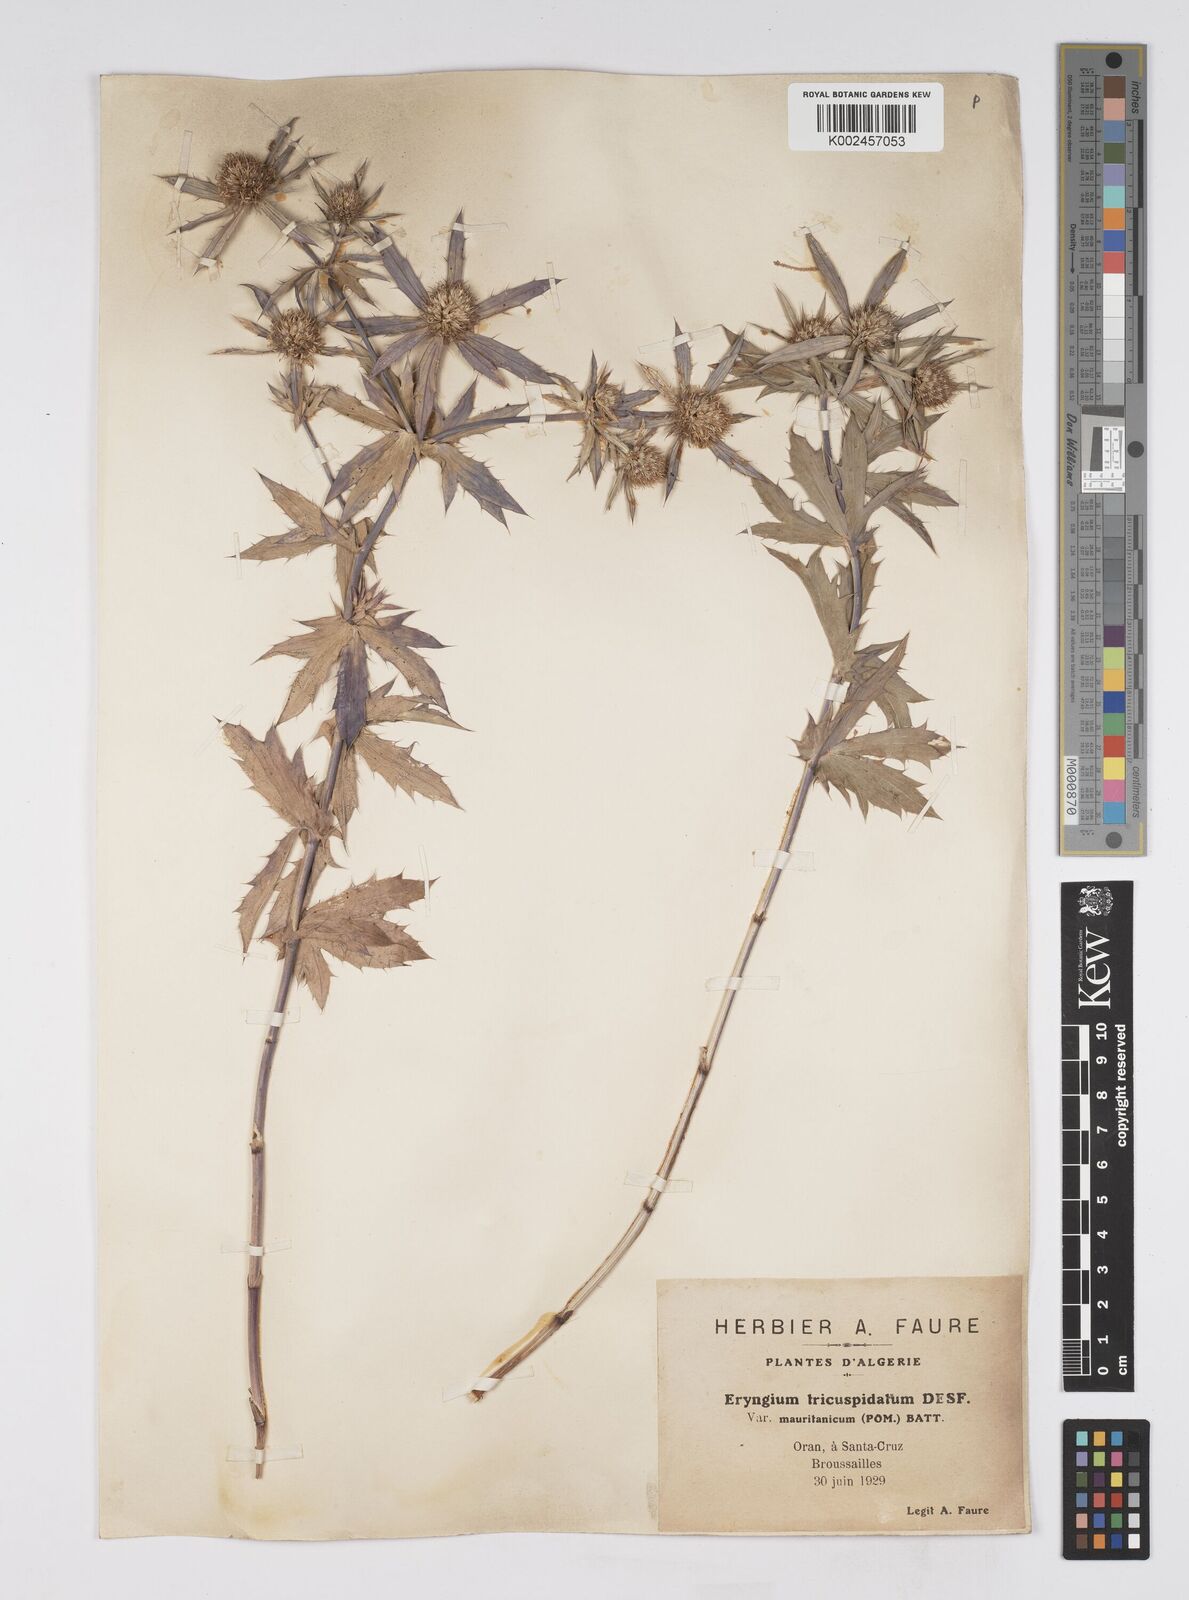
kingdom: Plantae
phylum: Tracheophyta
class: Magnoliopsida
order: Apiales
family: Apiaceae
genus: Eryngium
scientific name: Eryngium tricuspidatum
